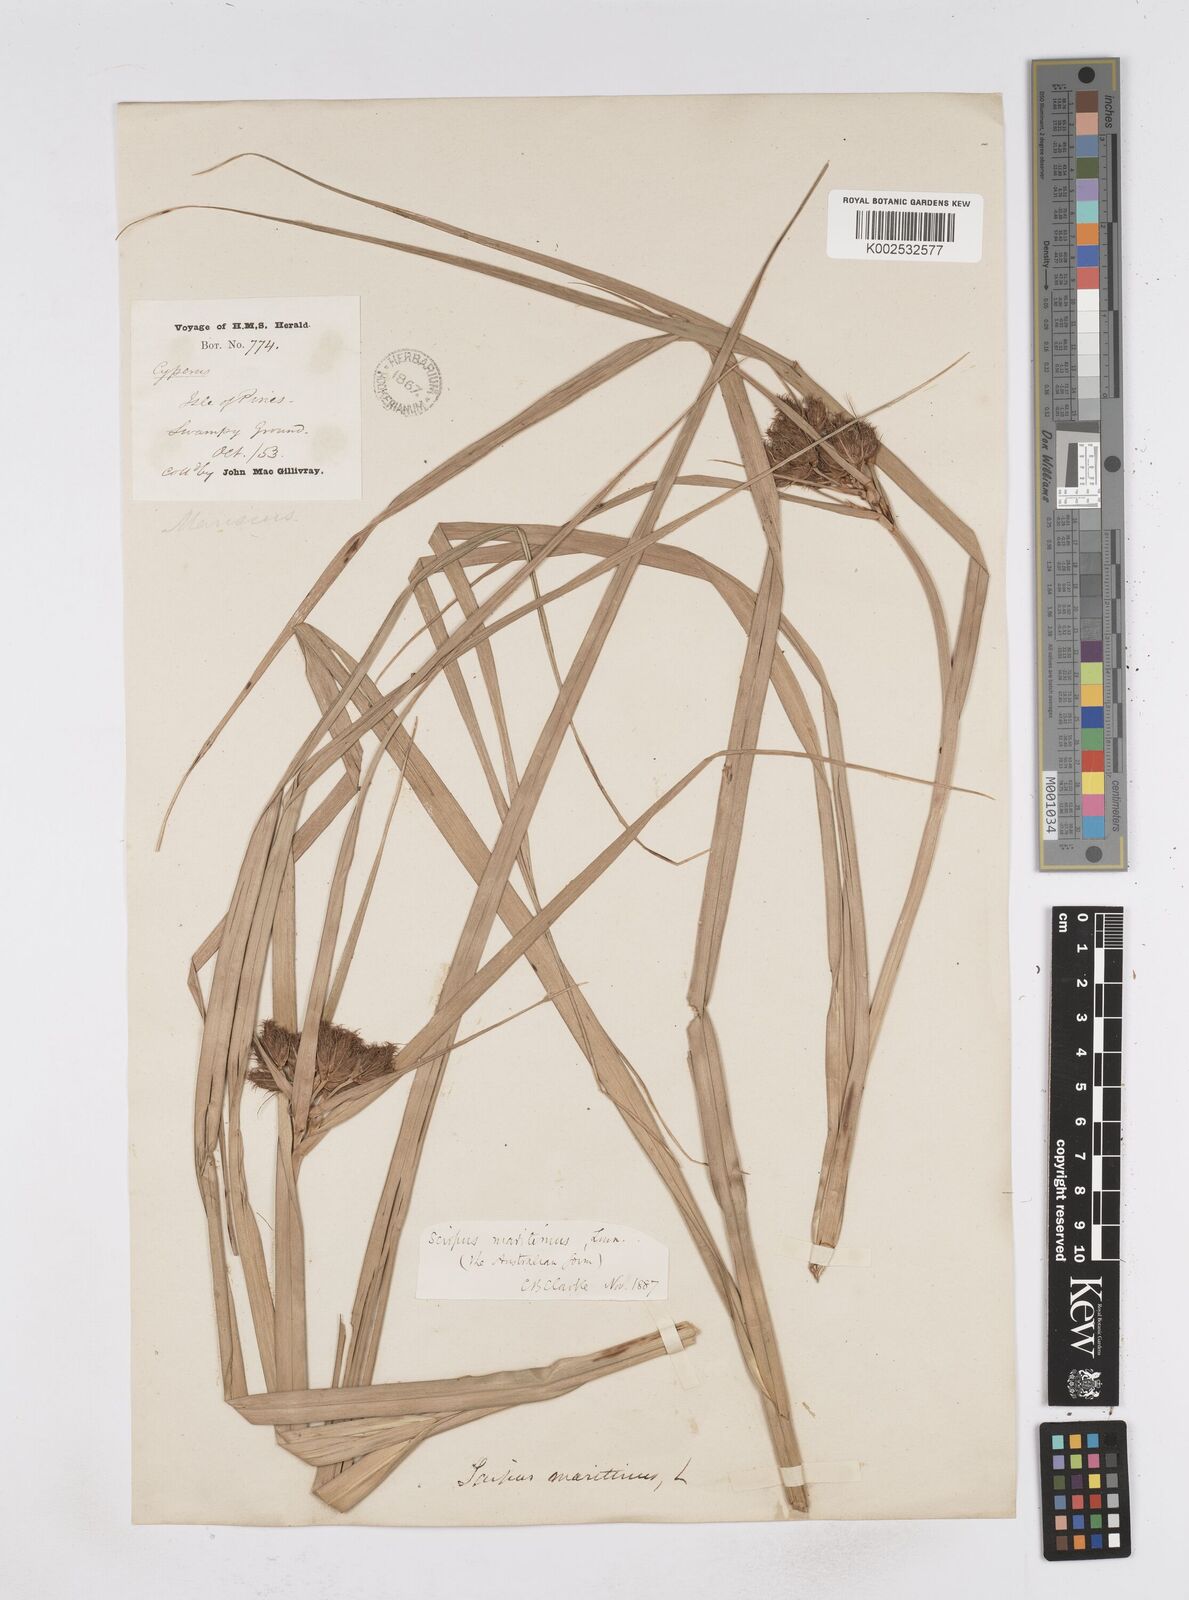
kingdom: Plantae
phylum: Tracheophyta
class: Liliopsida
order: Poales
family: Cyperaceae
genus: Bolboschoenus
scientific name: Bolboschoenus maritimus
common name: Sea club-rush
